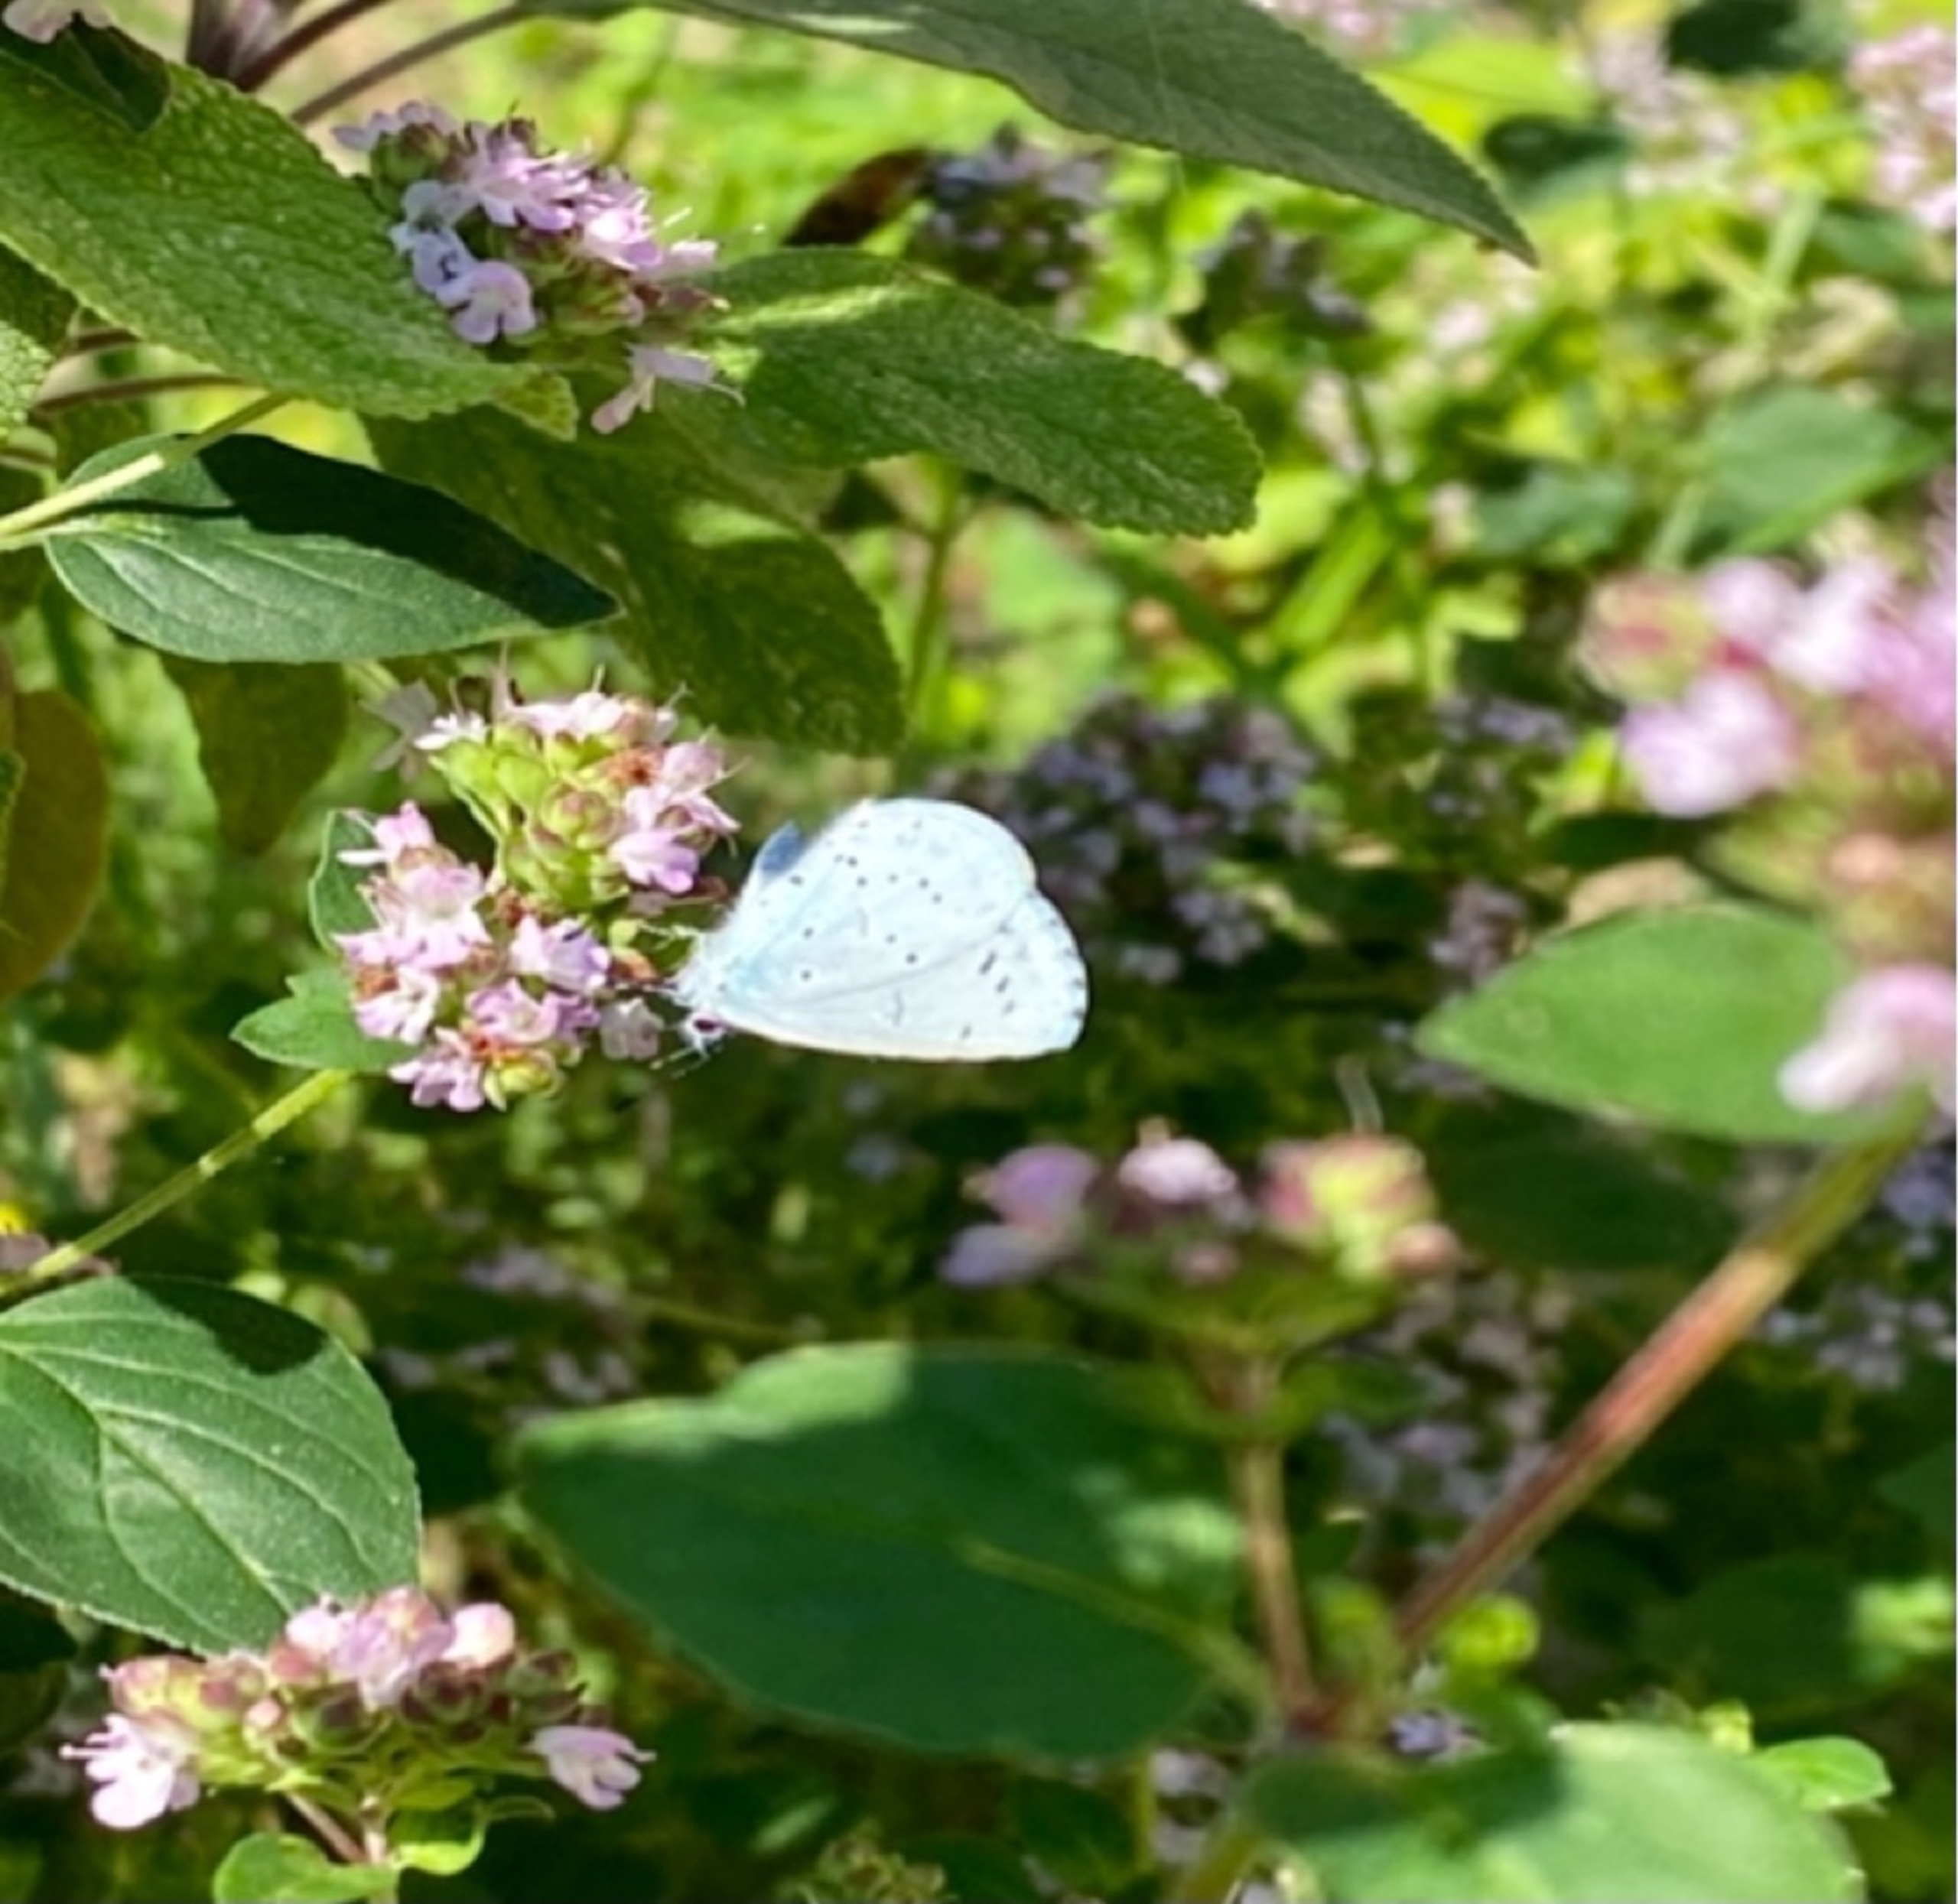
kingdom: Animalia
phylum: Arthropoda
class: Insecta
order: Lepidoptera
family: Lycaenidae
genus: Celastrina
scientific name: Celastrina argiolus
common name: Skovblåfugl
